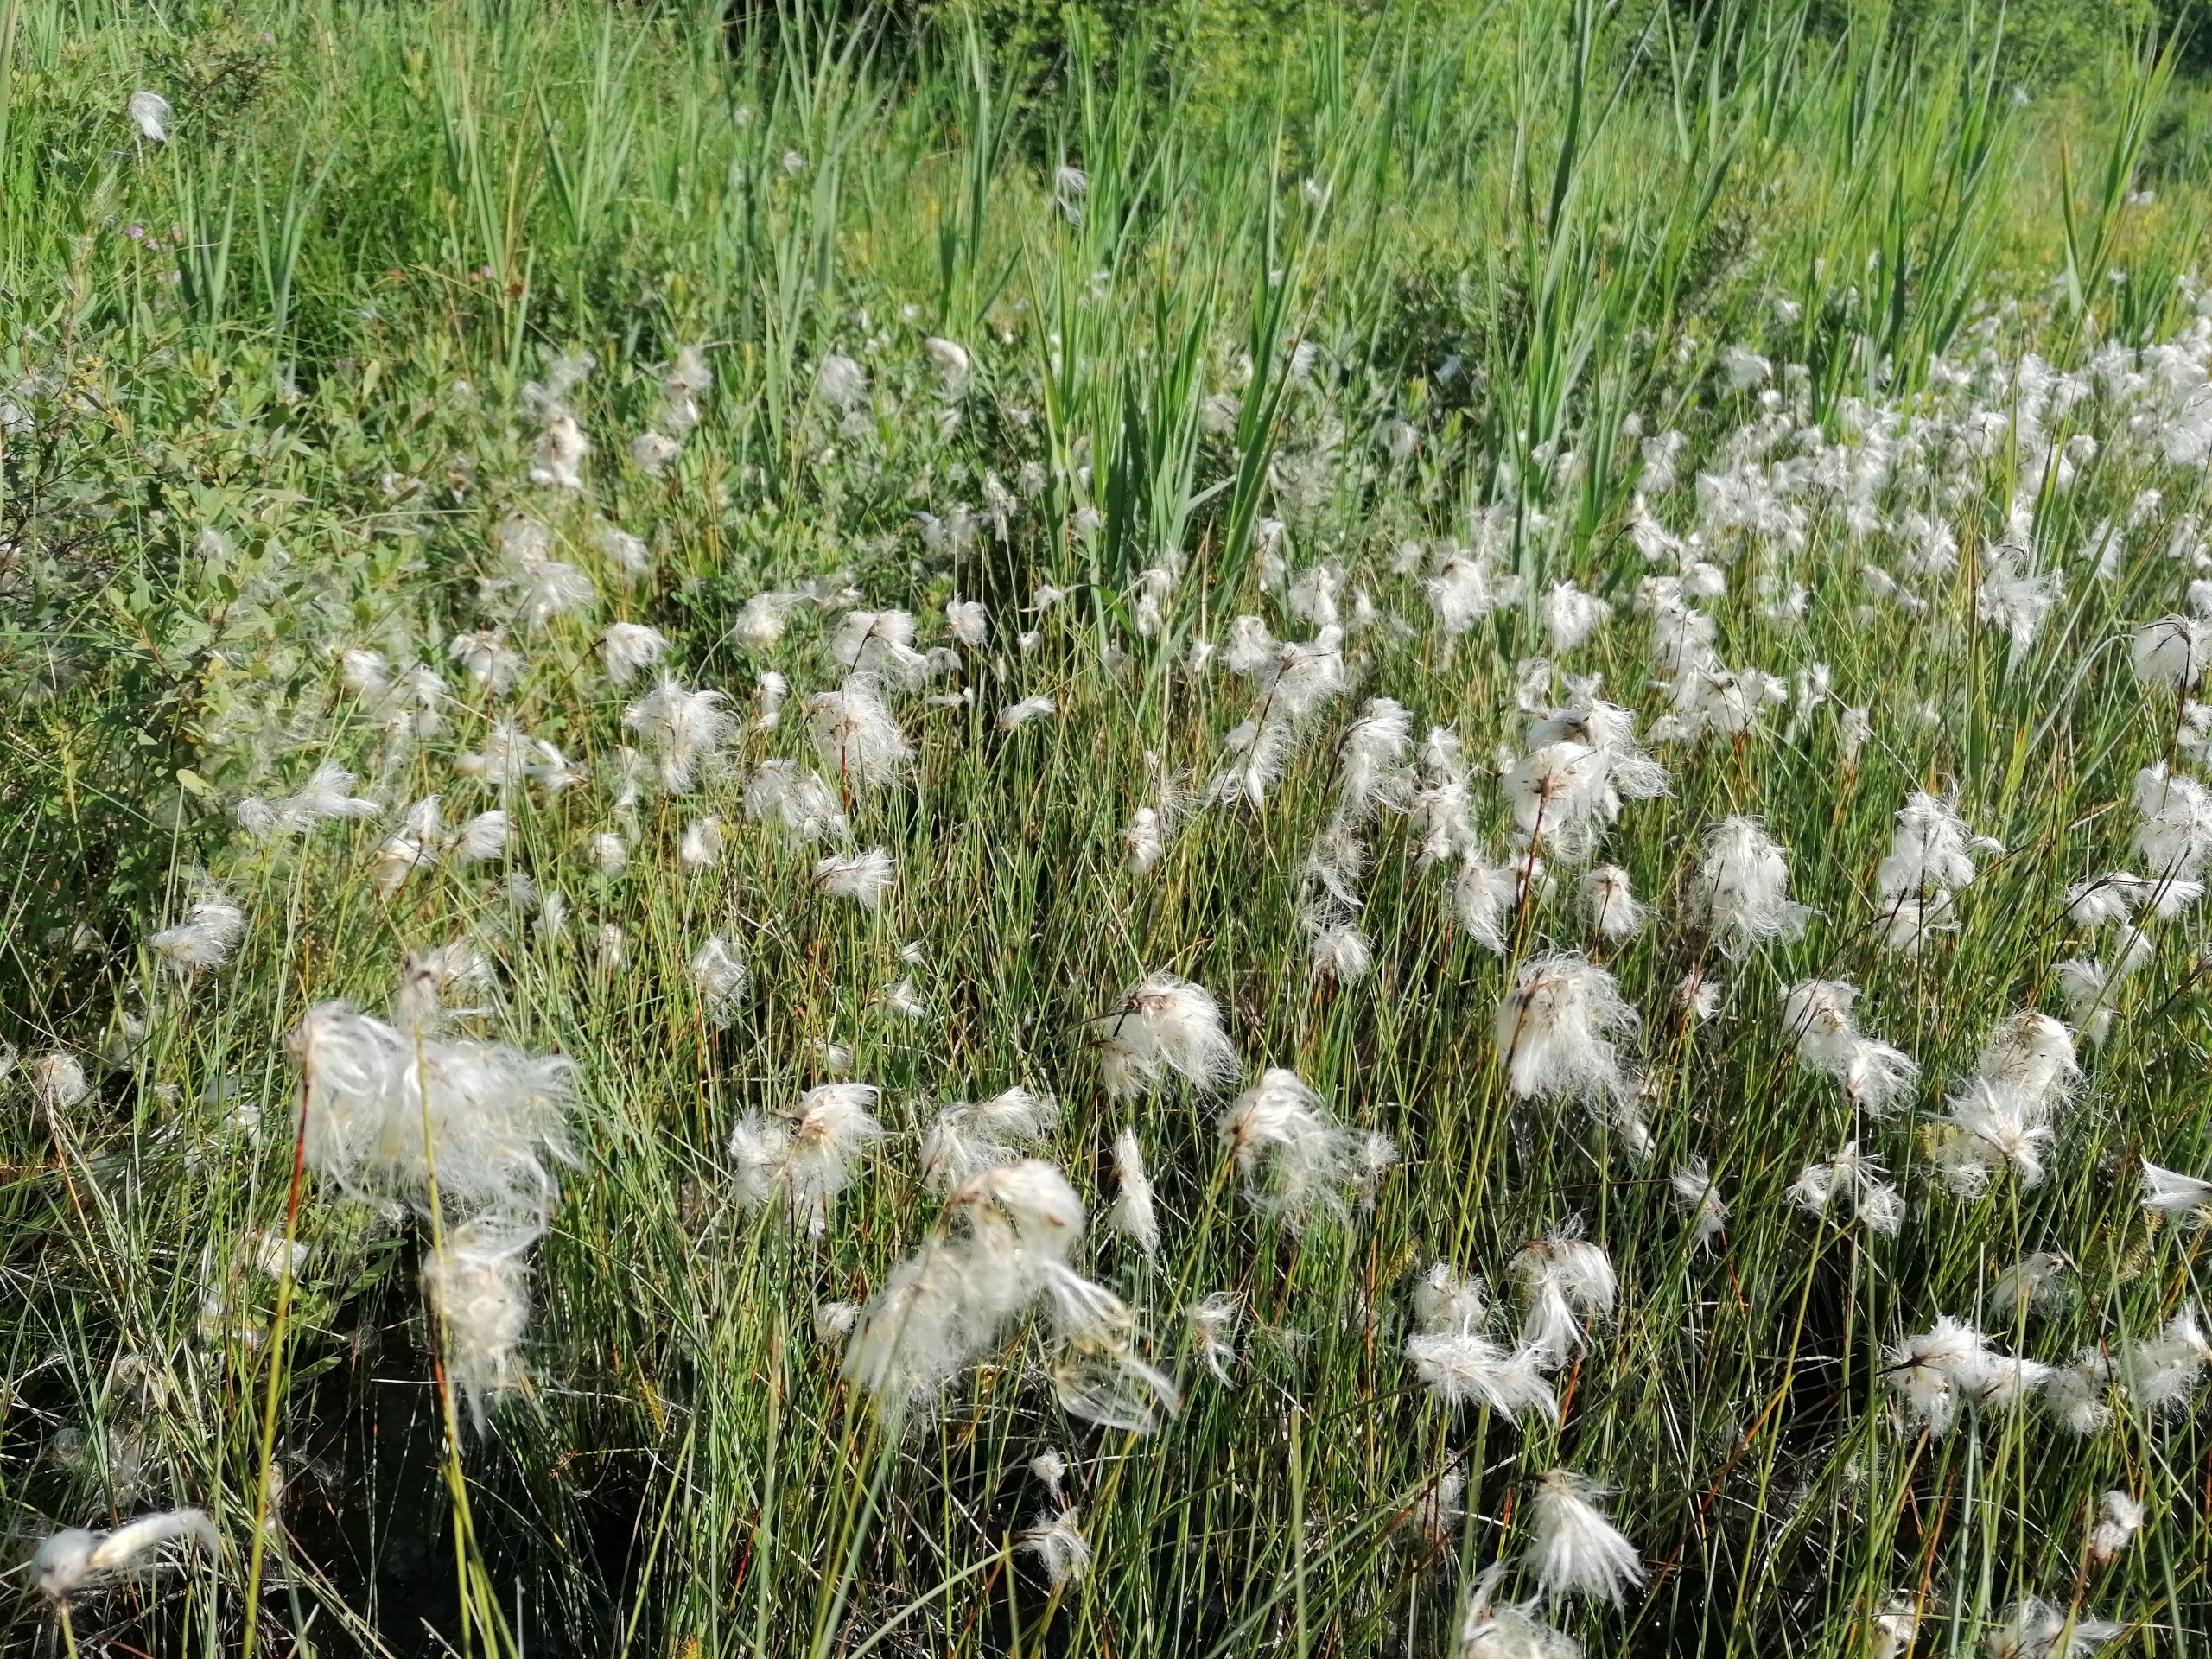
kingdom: Plantae
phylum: Tracheophyta
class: Liliopsida
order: Poales
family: Cyperaceae
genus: Eriophorum
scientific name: Eriophorum gracile
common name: Fin kæruld
